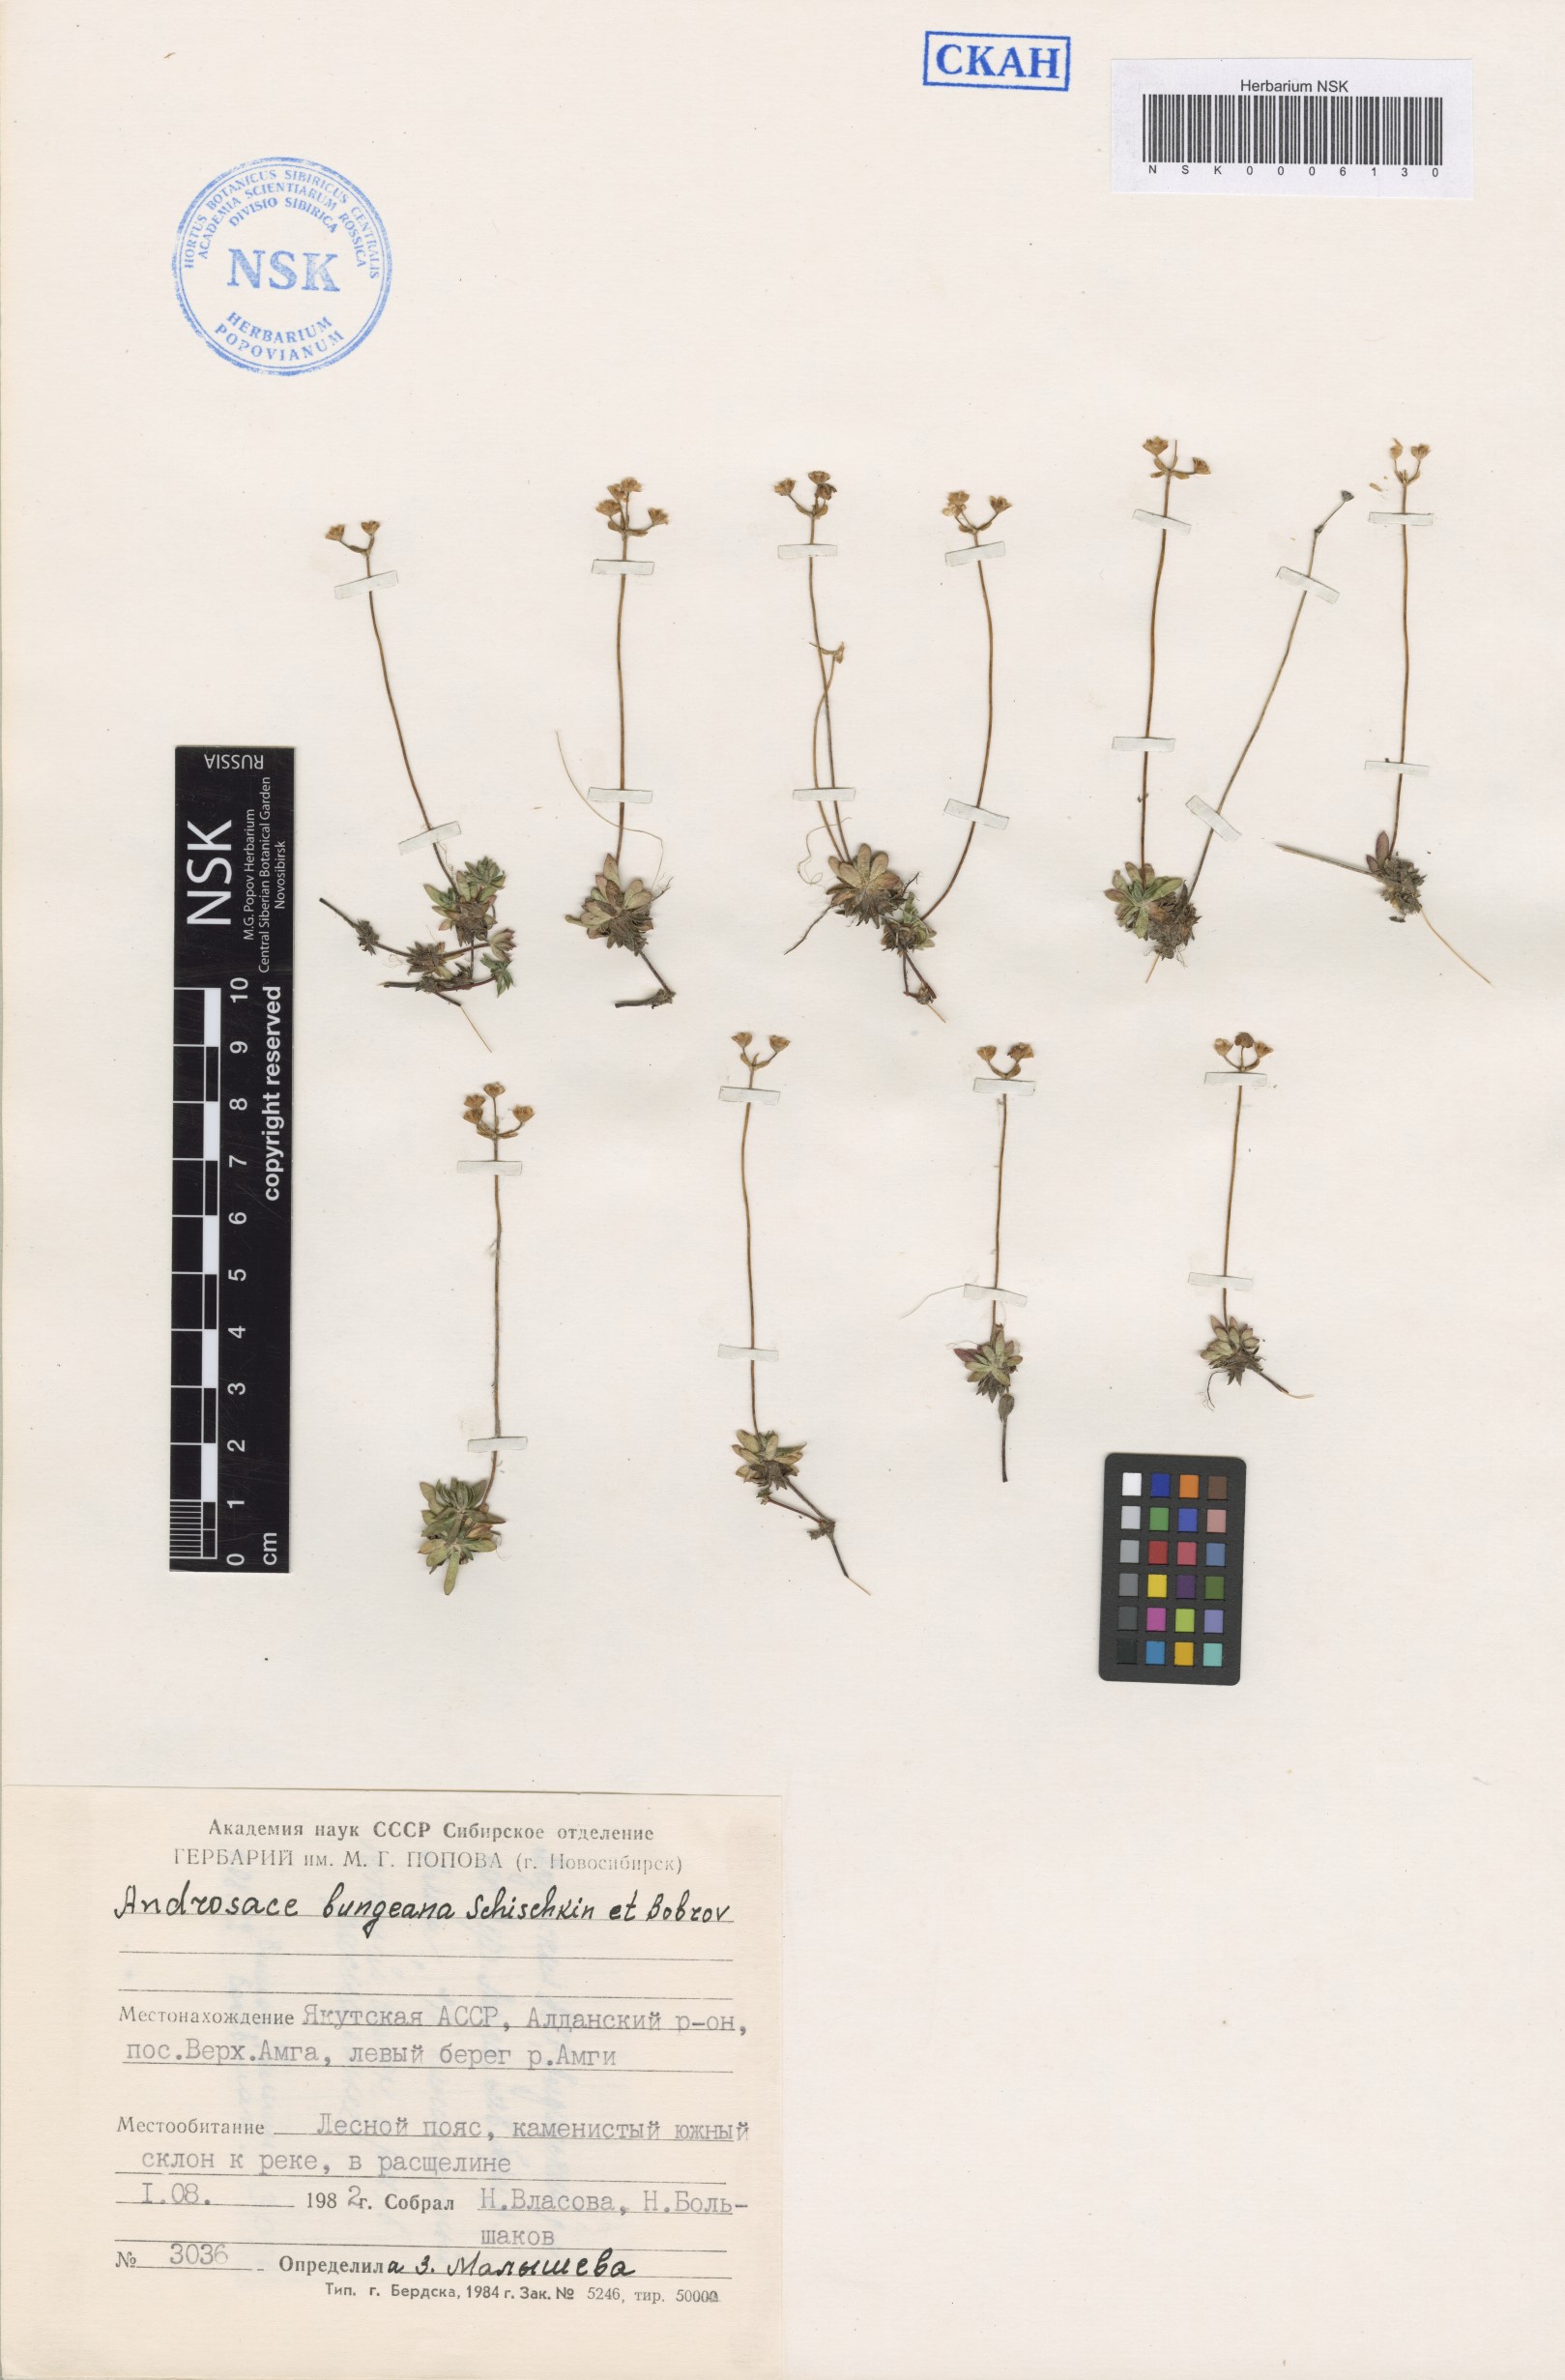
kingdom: Plantae
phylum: Tracheophyta
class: Magnoliopsida
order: Ericales
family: Primulaceae
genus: Androsace
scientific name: Androsace bungeana
